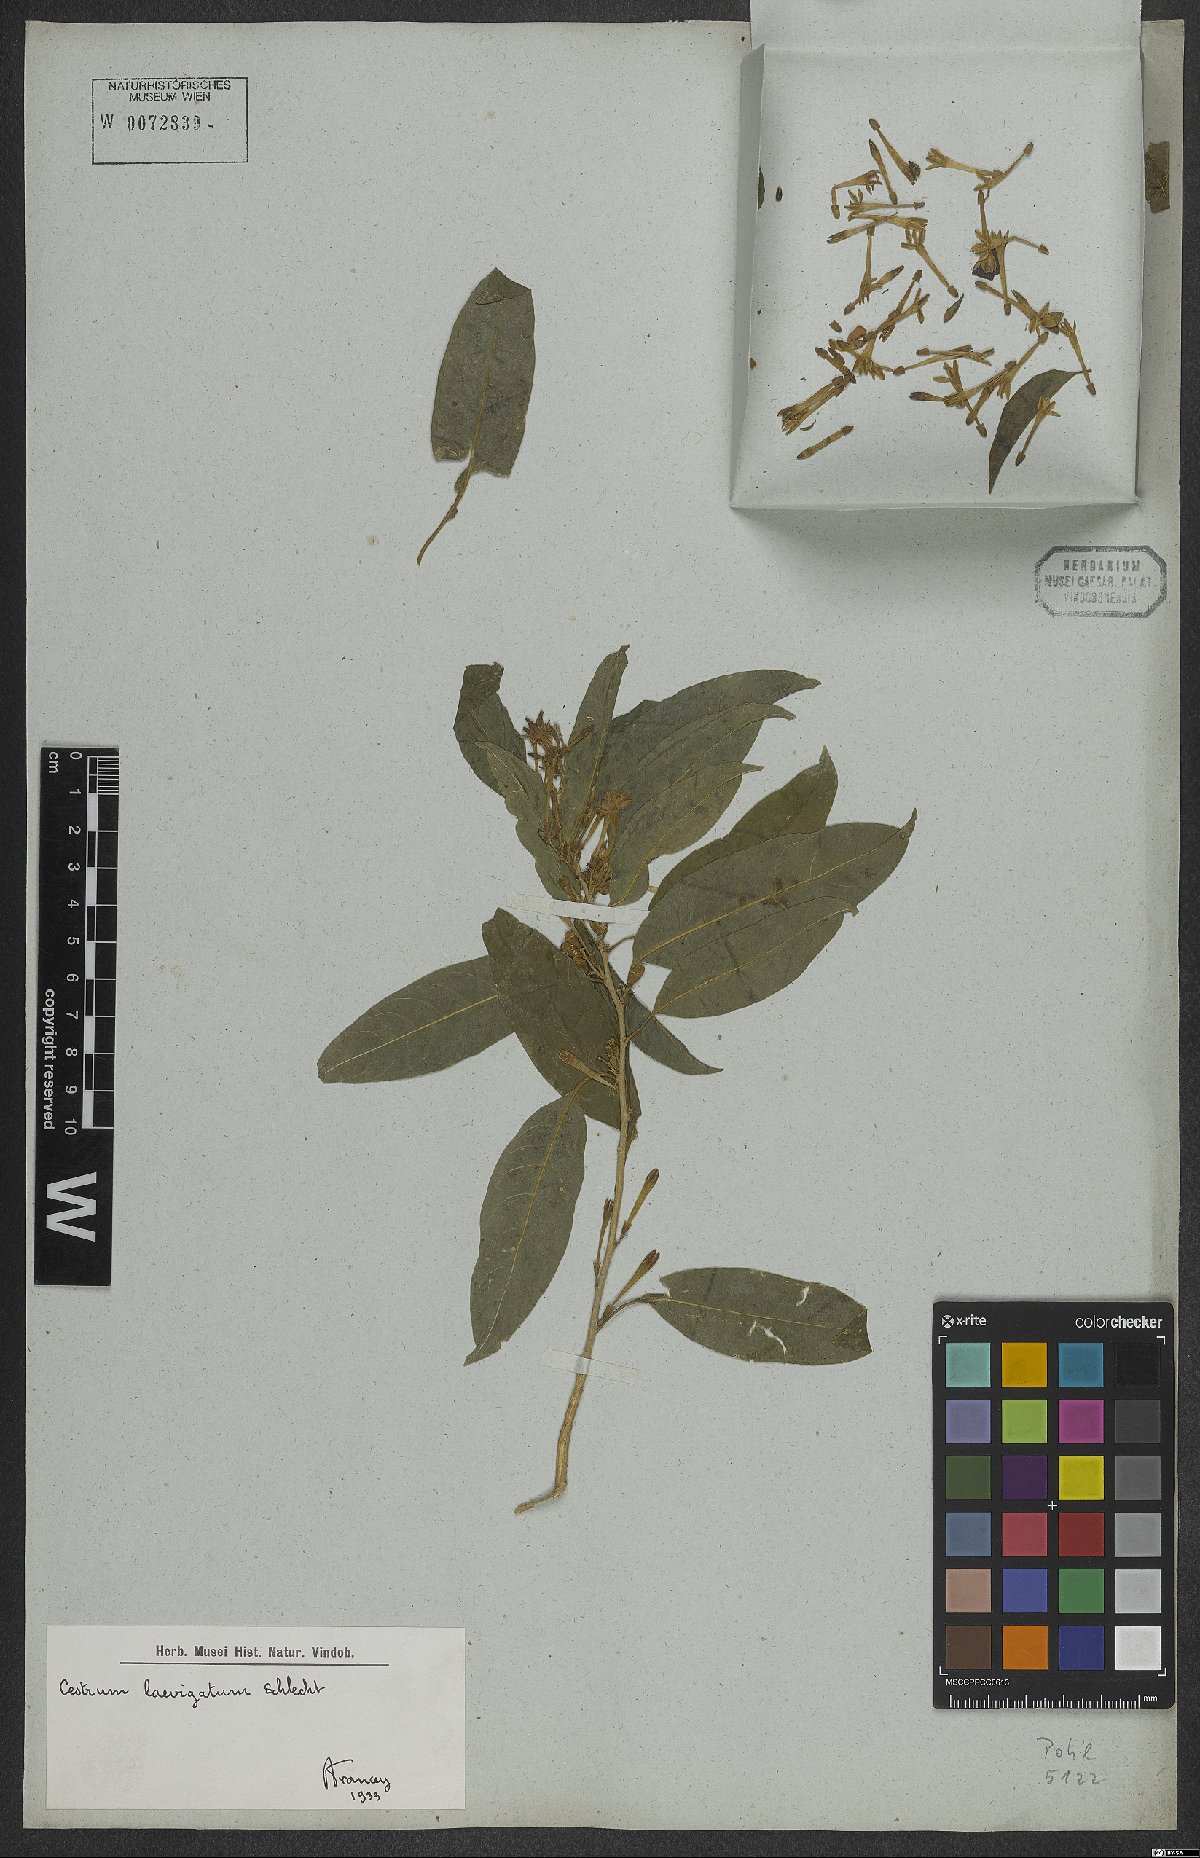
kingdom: Plantae
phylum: Tracheophyta
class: Magnoliopsida
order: Solanales
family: Solanaceae
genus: Cestrum
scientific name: Cestrum laevigatum
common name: Inkberry
